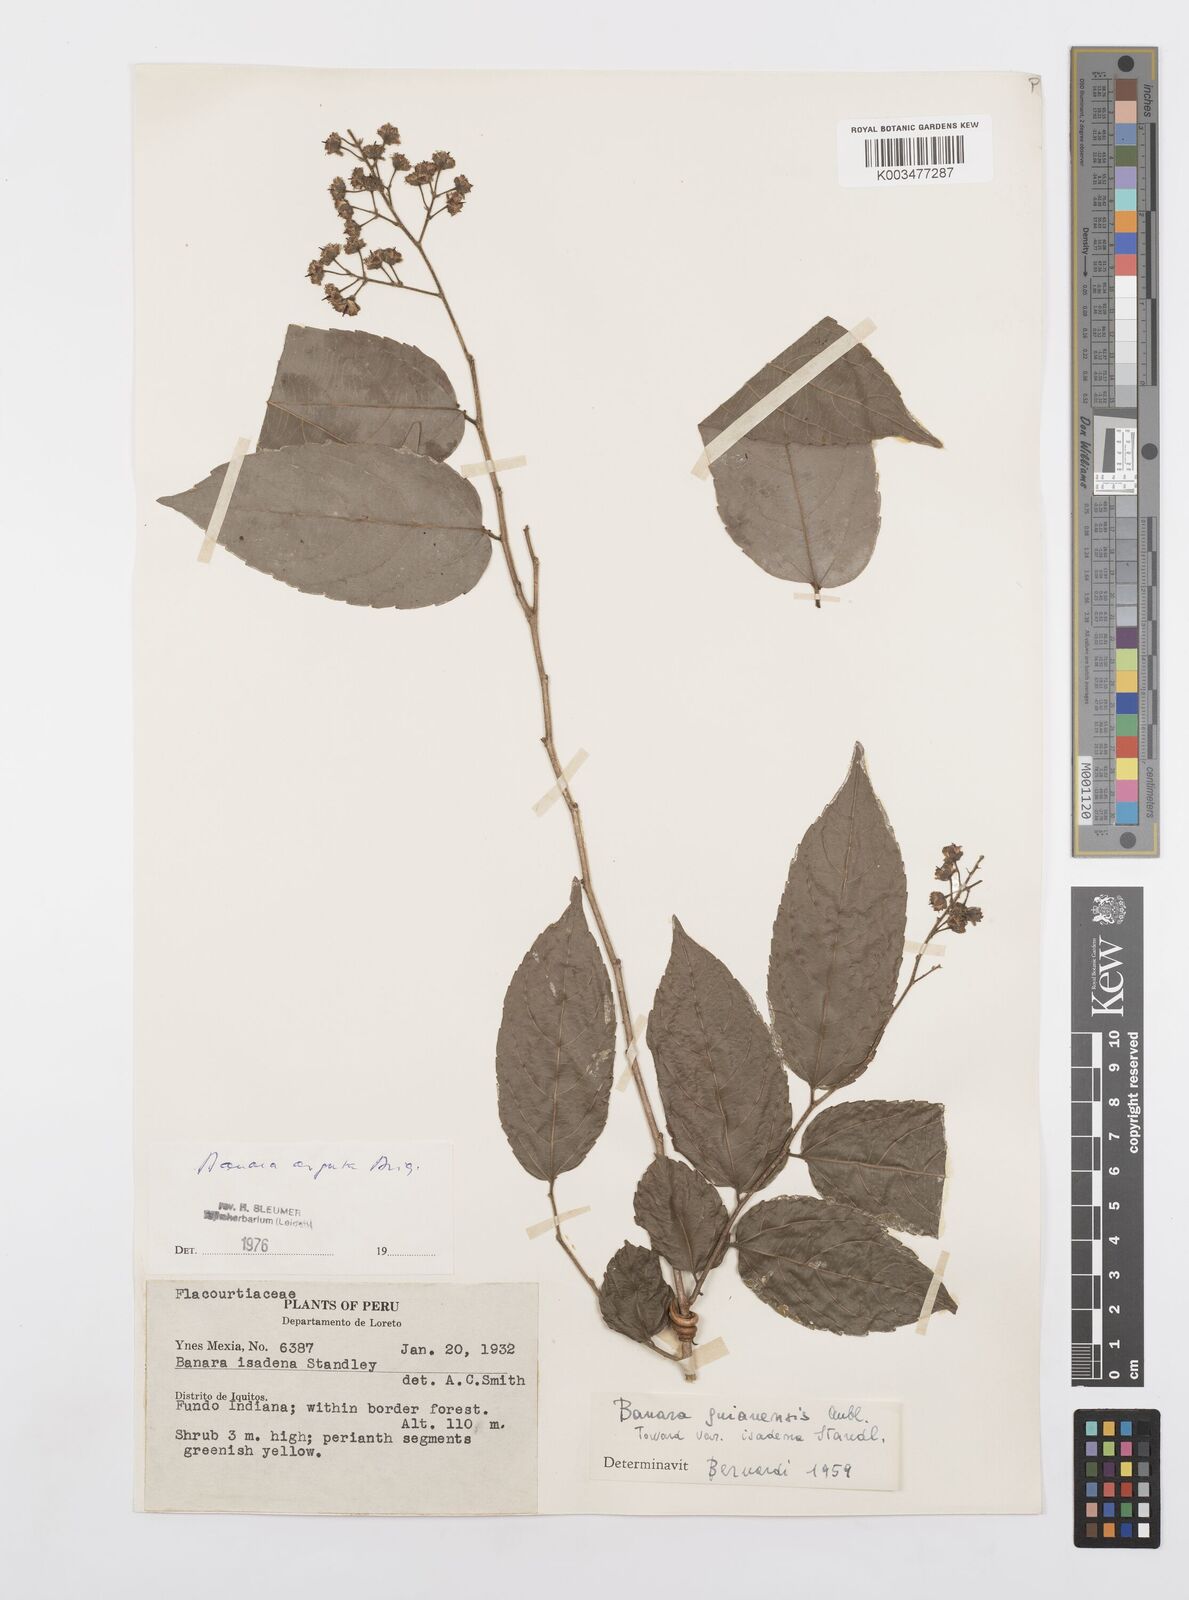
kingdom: Plantae
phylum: Tracheophyta
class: Magnoliopsida
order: Malpighiales
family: Salicaceae
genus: Banara
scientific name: Banara arguta
